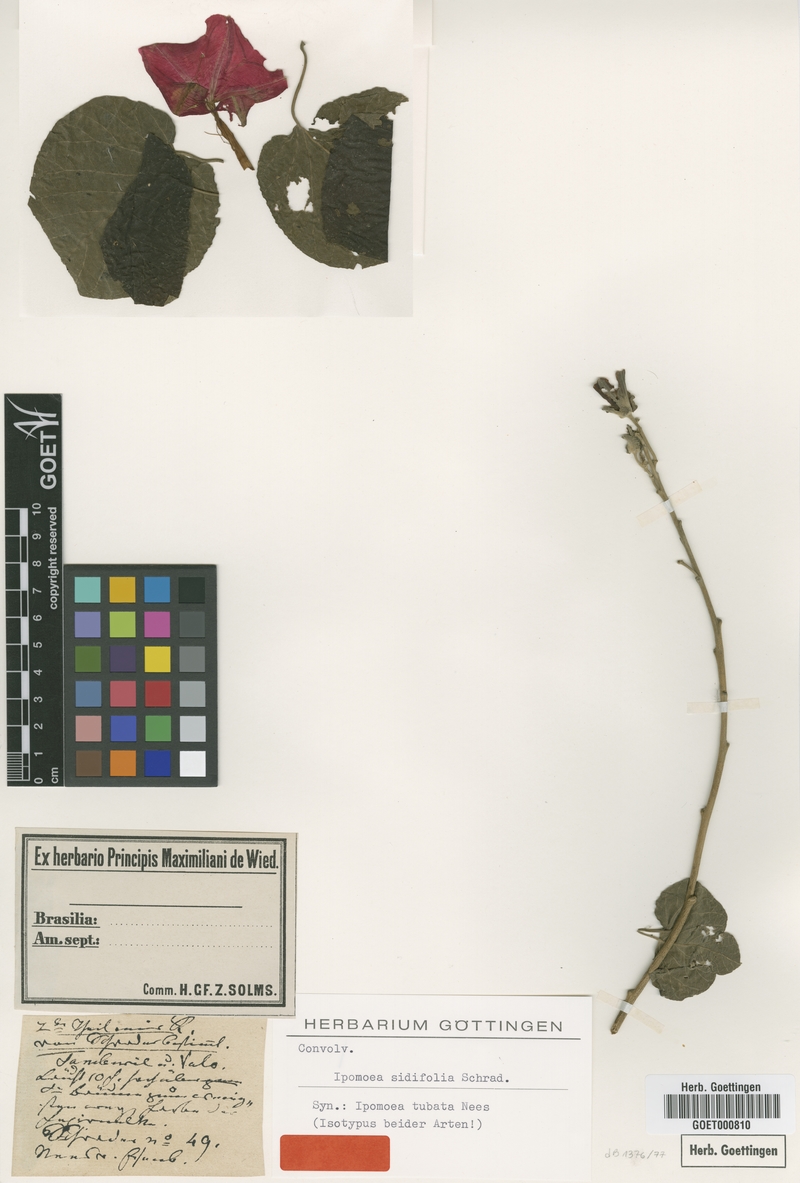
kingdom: Plantae
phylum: Tracheophyta
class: Magnoliopsida
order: Solanales
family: Convolvulaceae
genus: Ipomoea
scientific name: Ipomoea sidifolia
